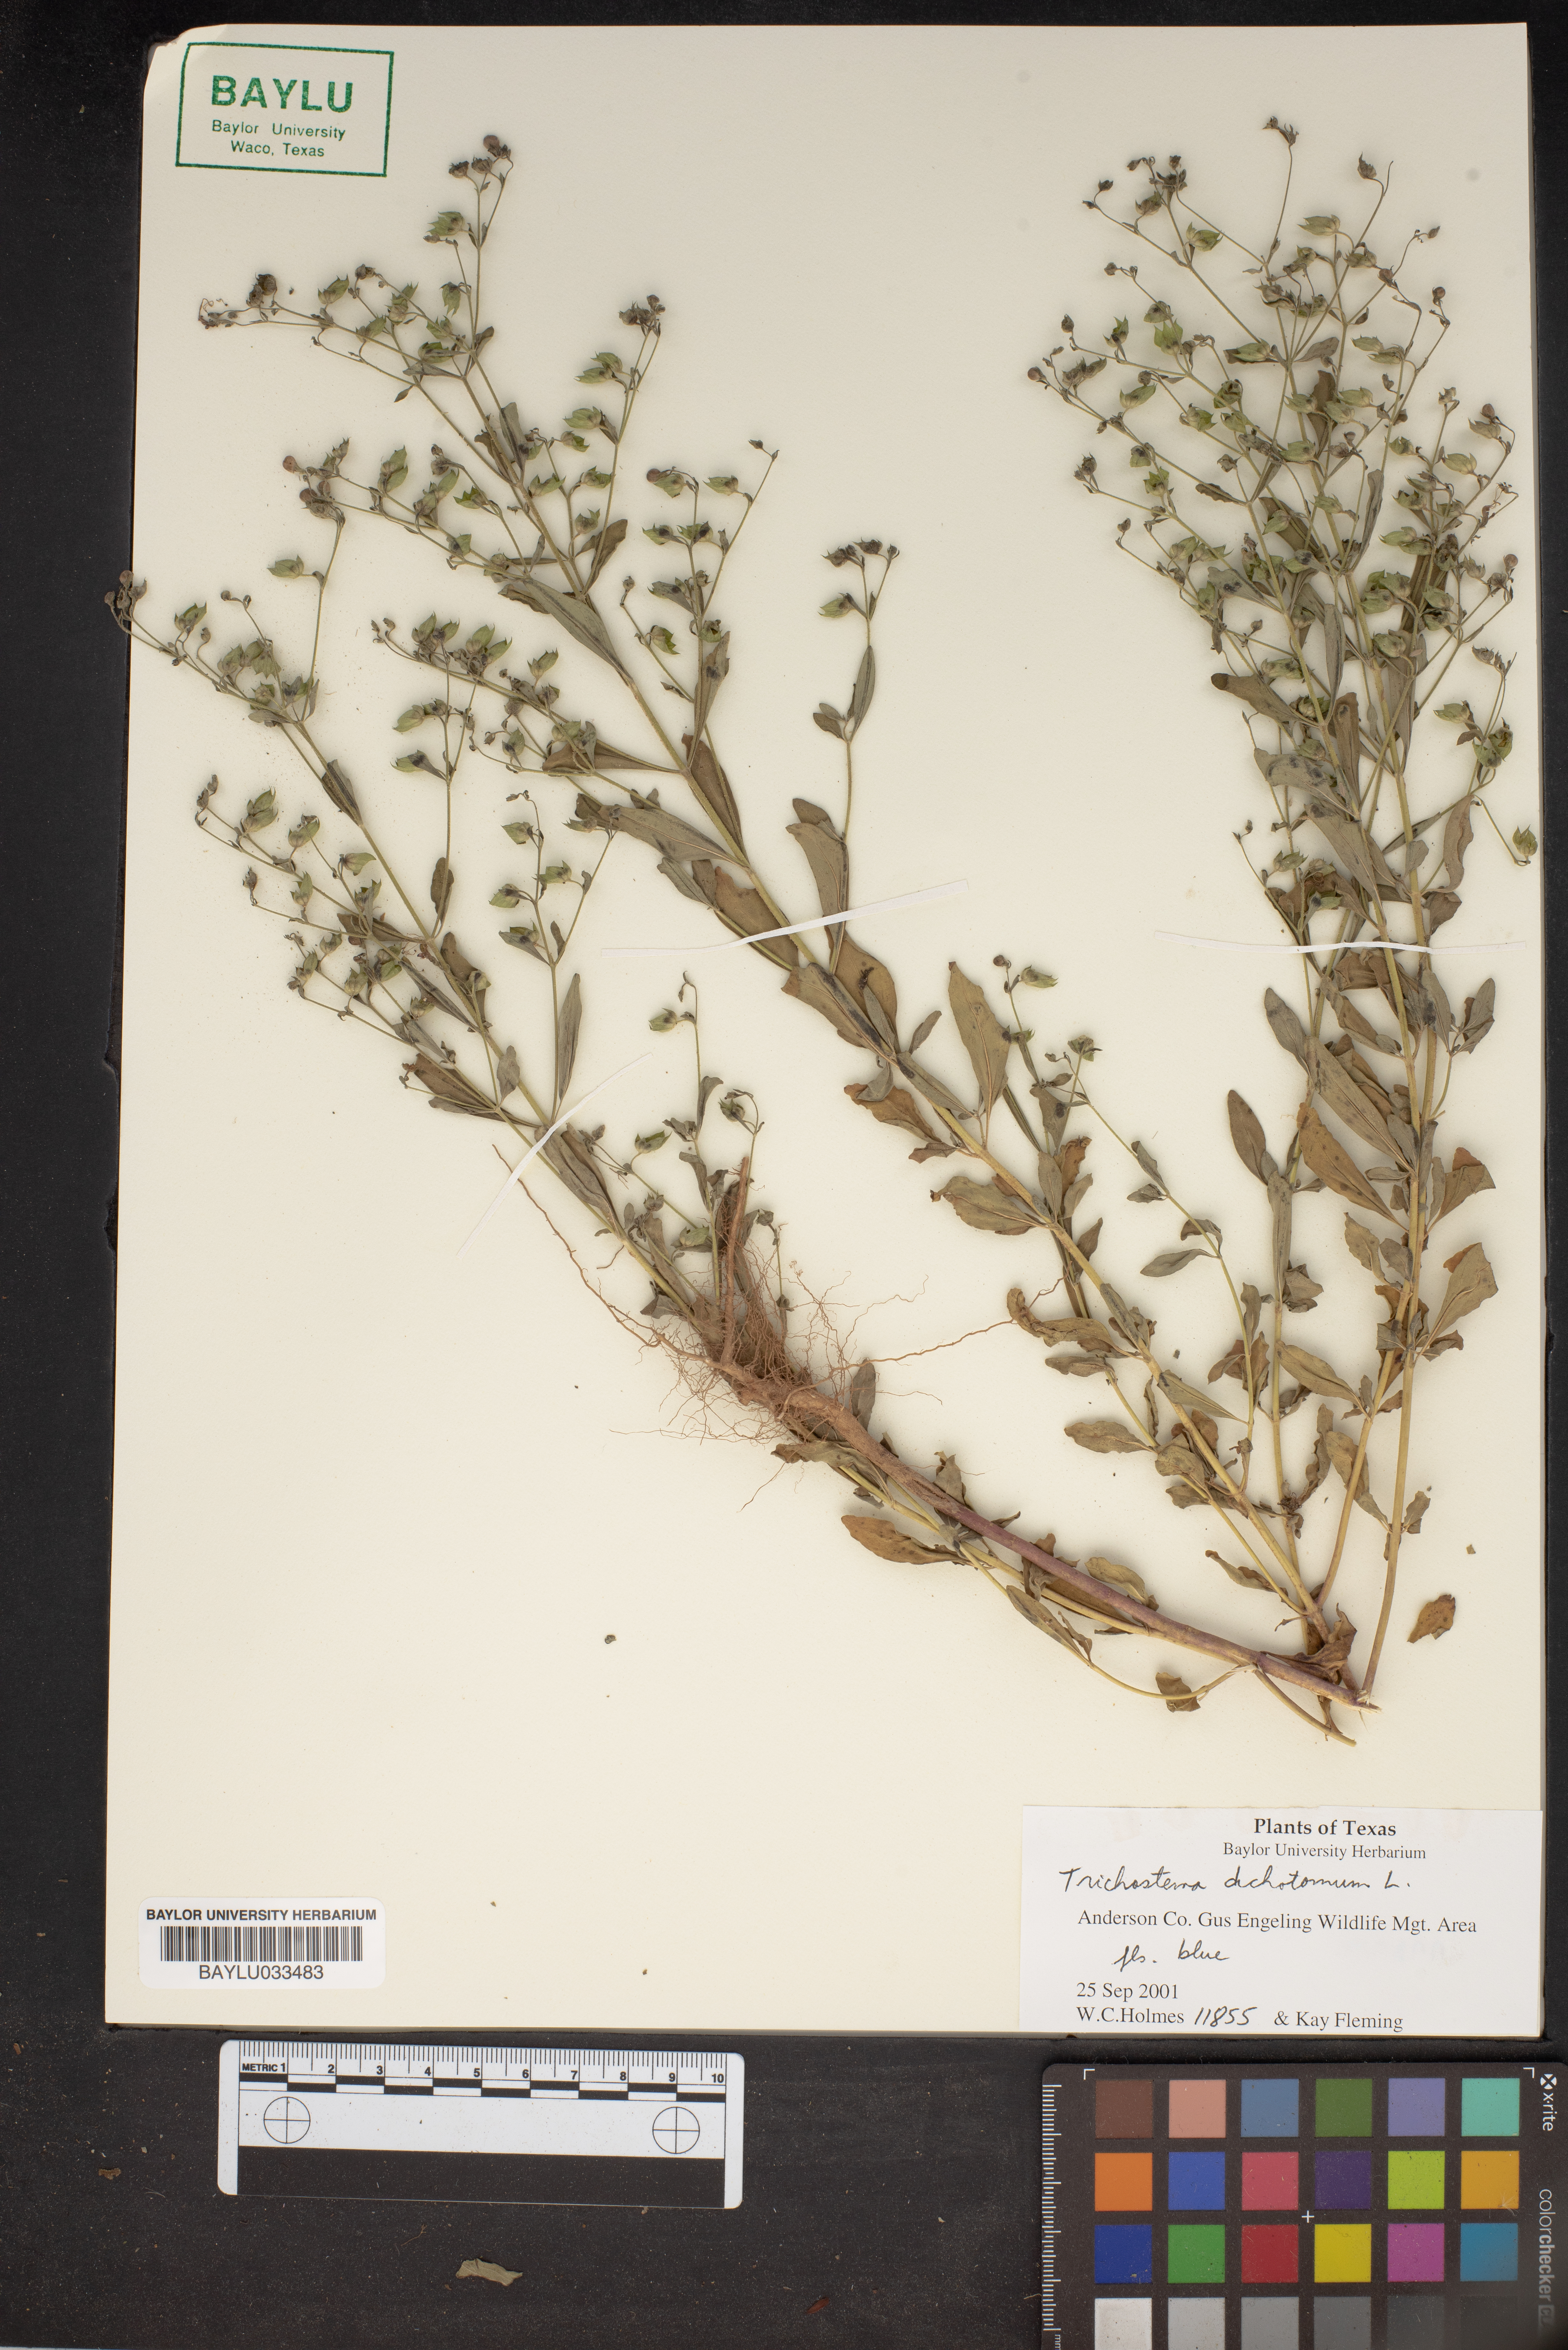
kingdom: Plantae
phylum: Tracheophyta
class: Magnoliopsida
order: Lamiales
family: Lamiaceae
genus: Trichostema
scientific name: Trichostema dichotomum
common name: Bastard pennyroyal
